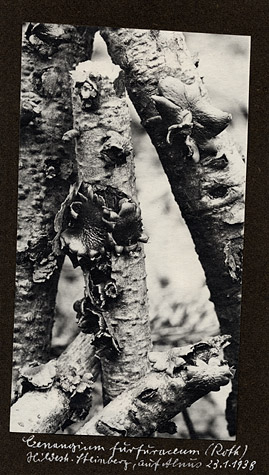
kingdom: Plantae
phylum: Tracheophyta
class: Magnoliopsida
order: Fagales
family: Betulaceae
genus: Alnus
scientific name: Alnus
